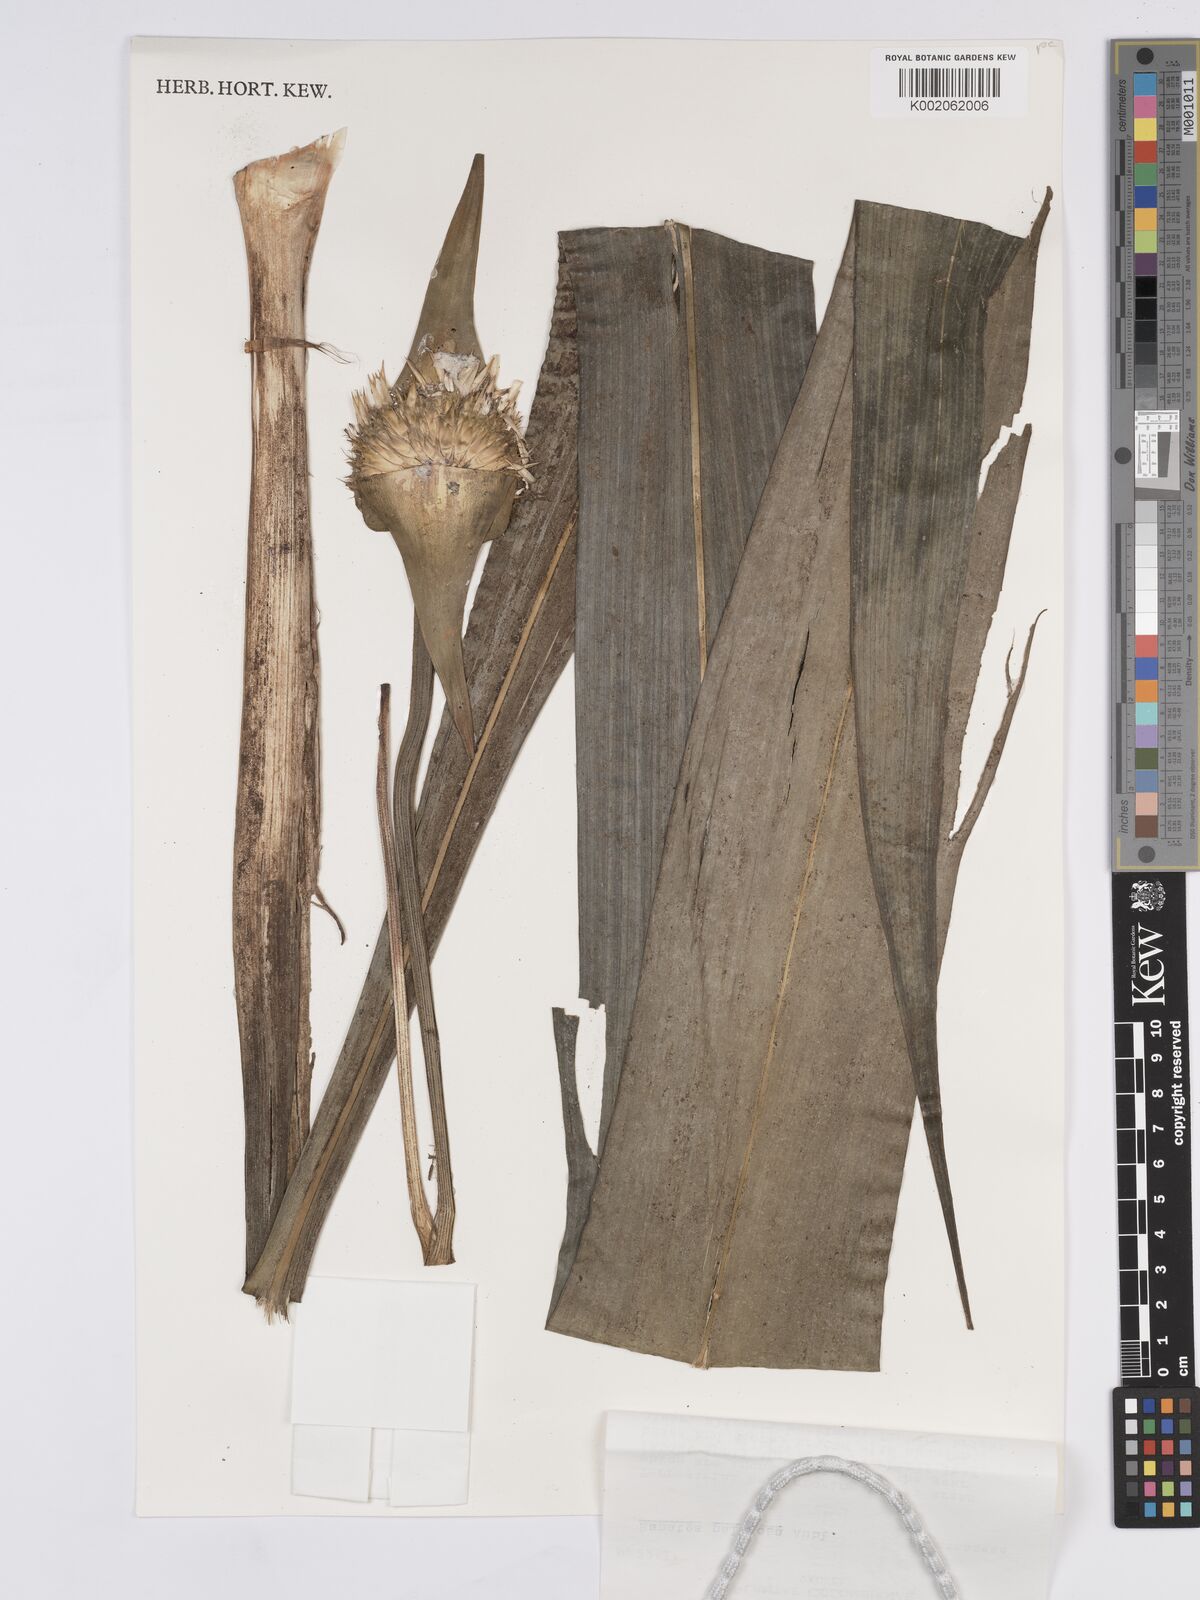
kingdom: Plantae
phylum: Tracheophyta
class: Liliopsida
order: Poales
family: Rapateaceae
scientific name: Rapateaceae
